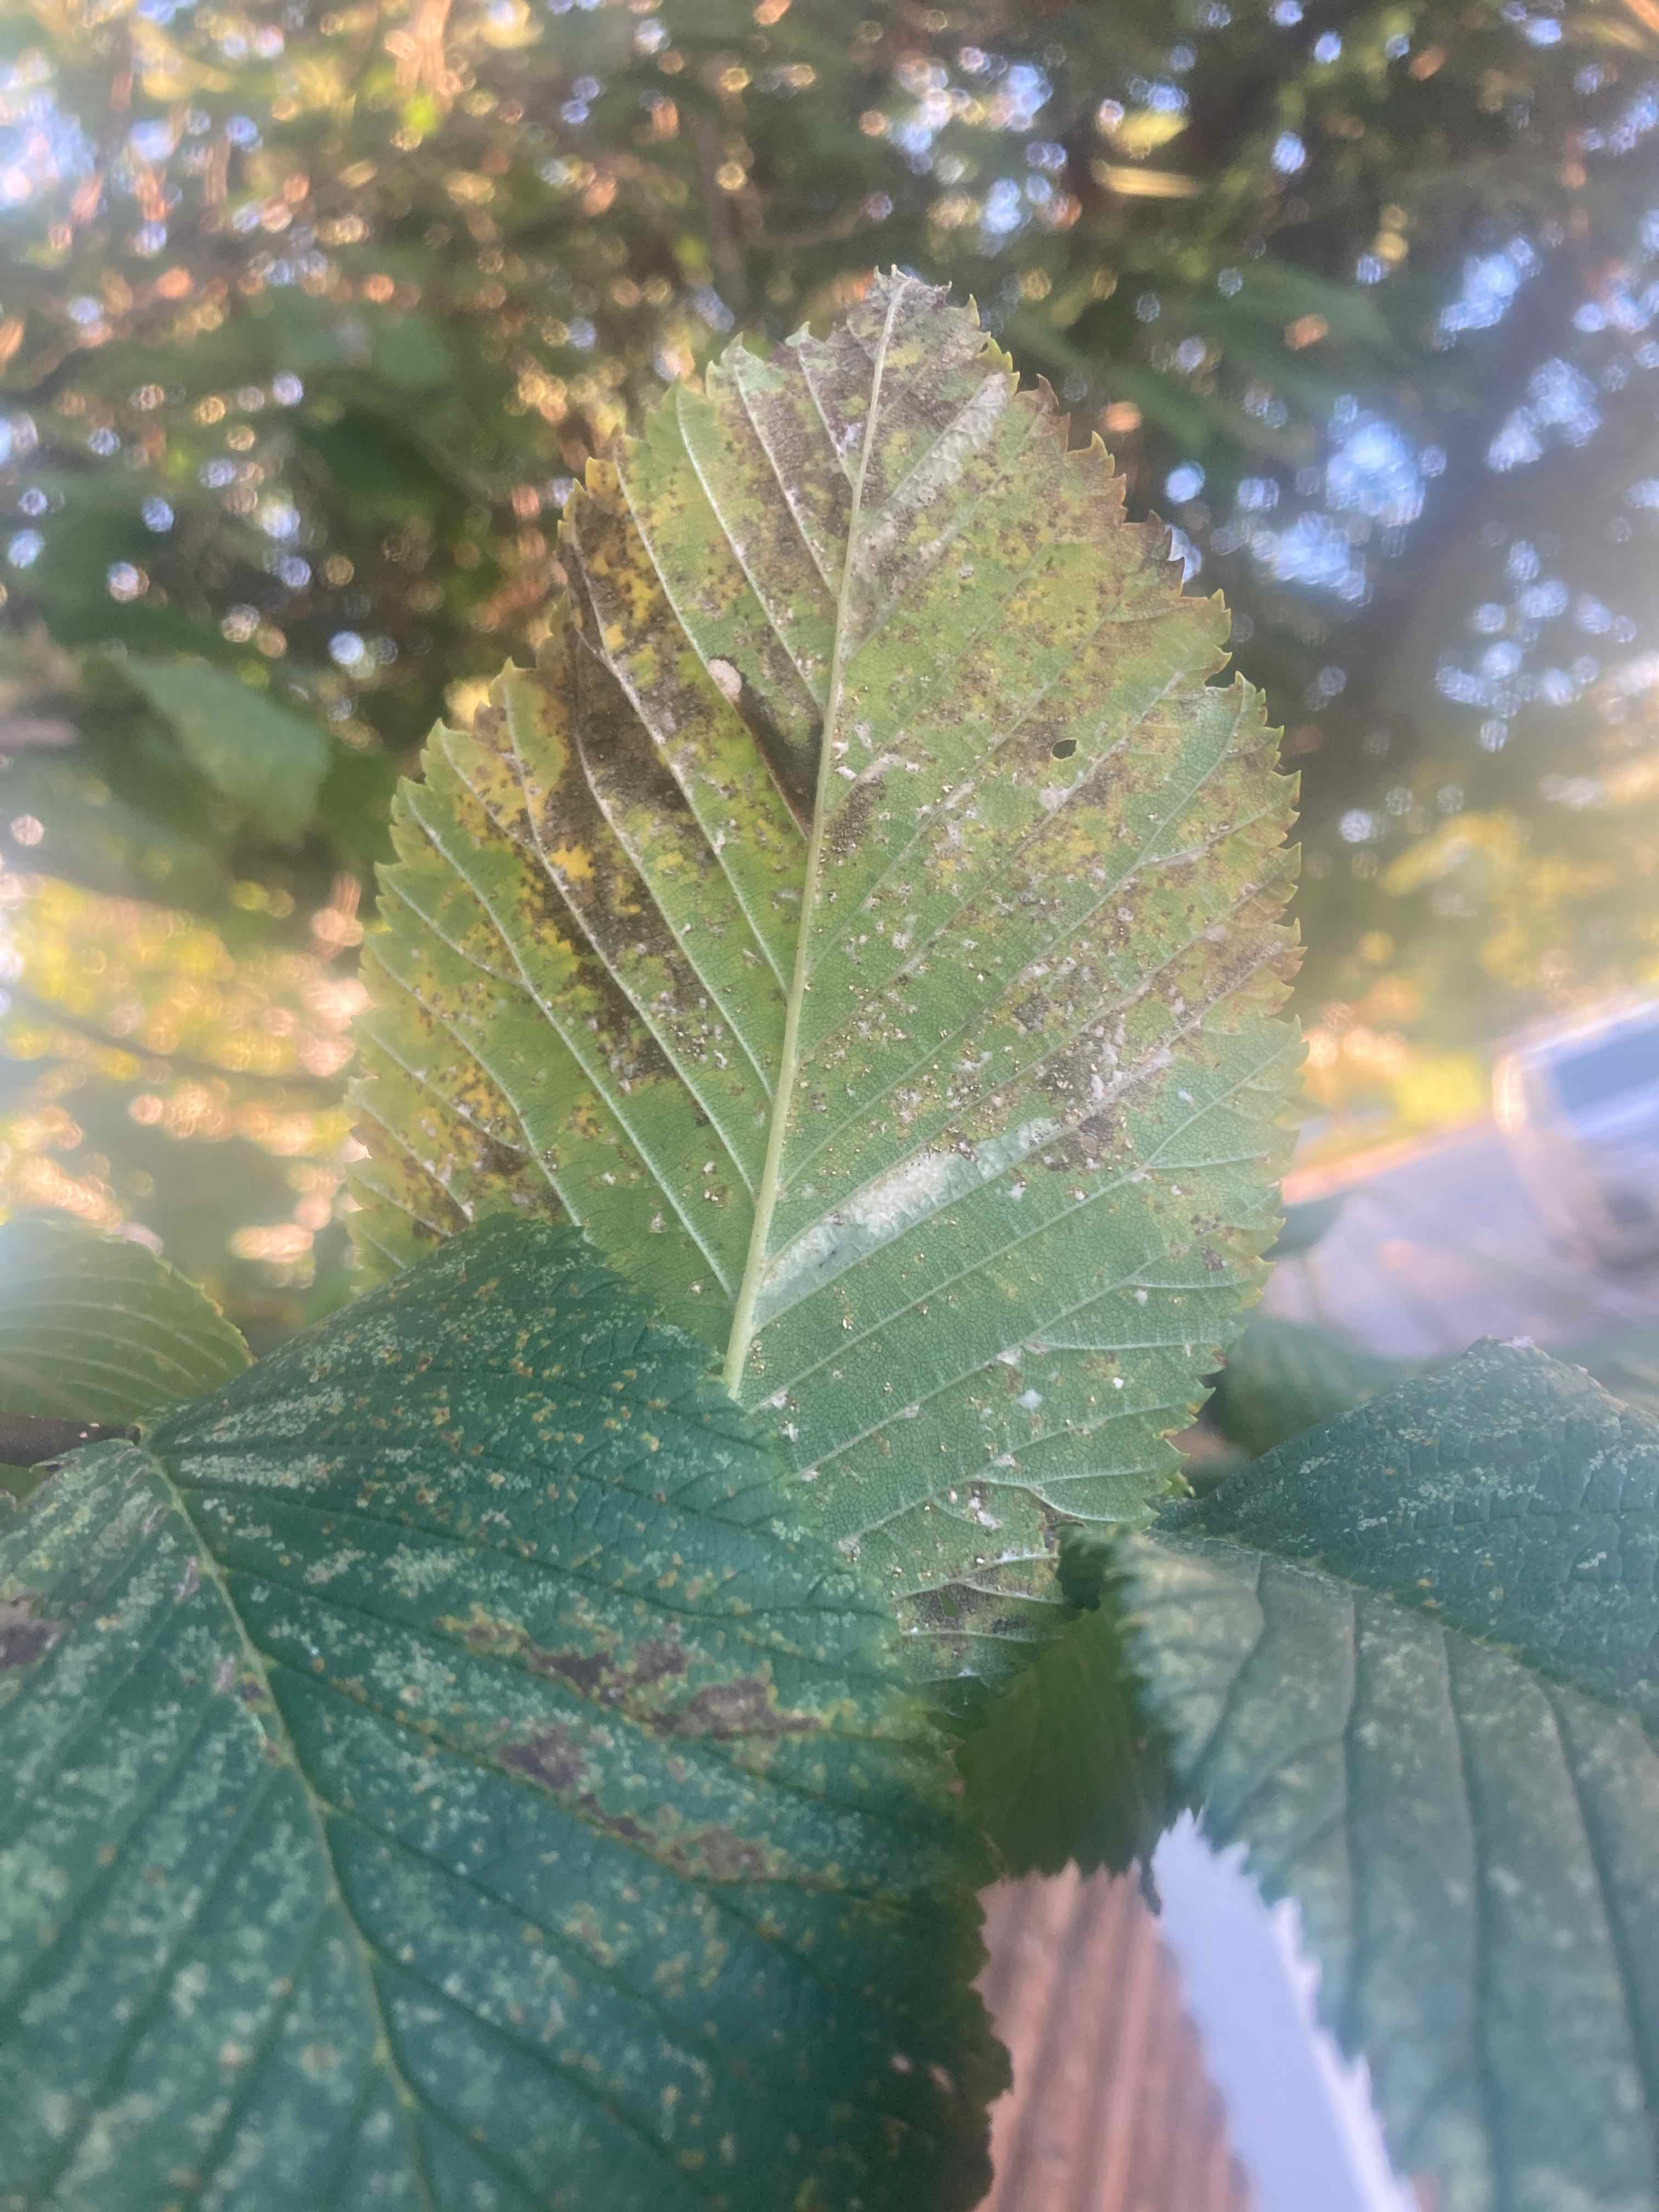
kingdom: Fungi
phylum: Ascomycota
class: Dothideomycetes
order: Mycosphaerellales
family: Mycosphaerellaceae
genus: Mycosphaerella
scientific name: Mycosphaerella ulmi
